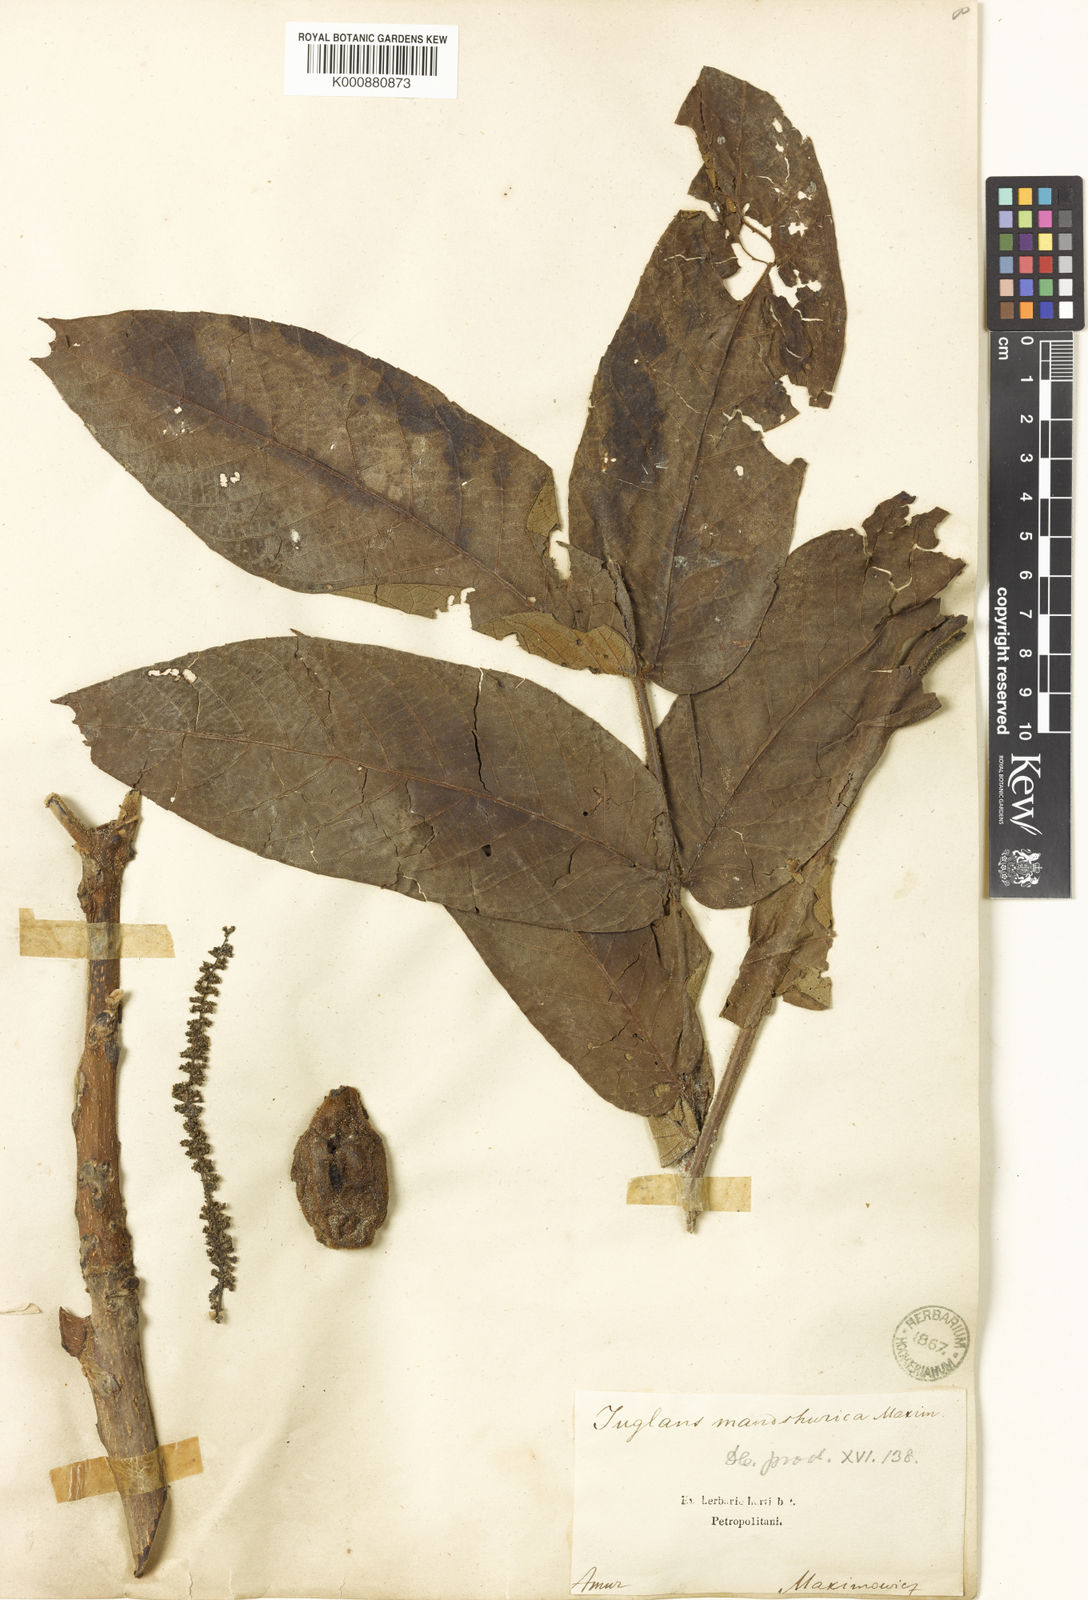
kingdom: Plantae
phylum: Tracheophyta
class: Magnoliopsida
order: Fagales
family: Juglandaceae
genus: Juglans
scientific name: Juglans mandshurica
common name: Manchurian walnut
